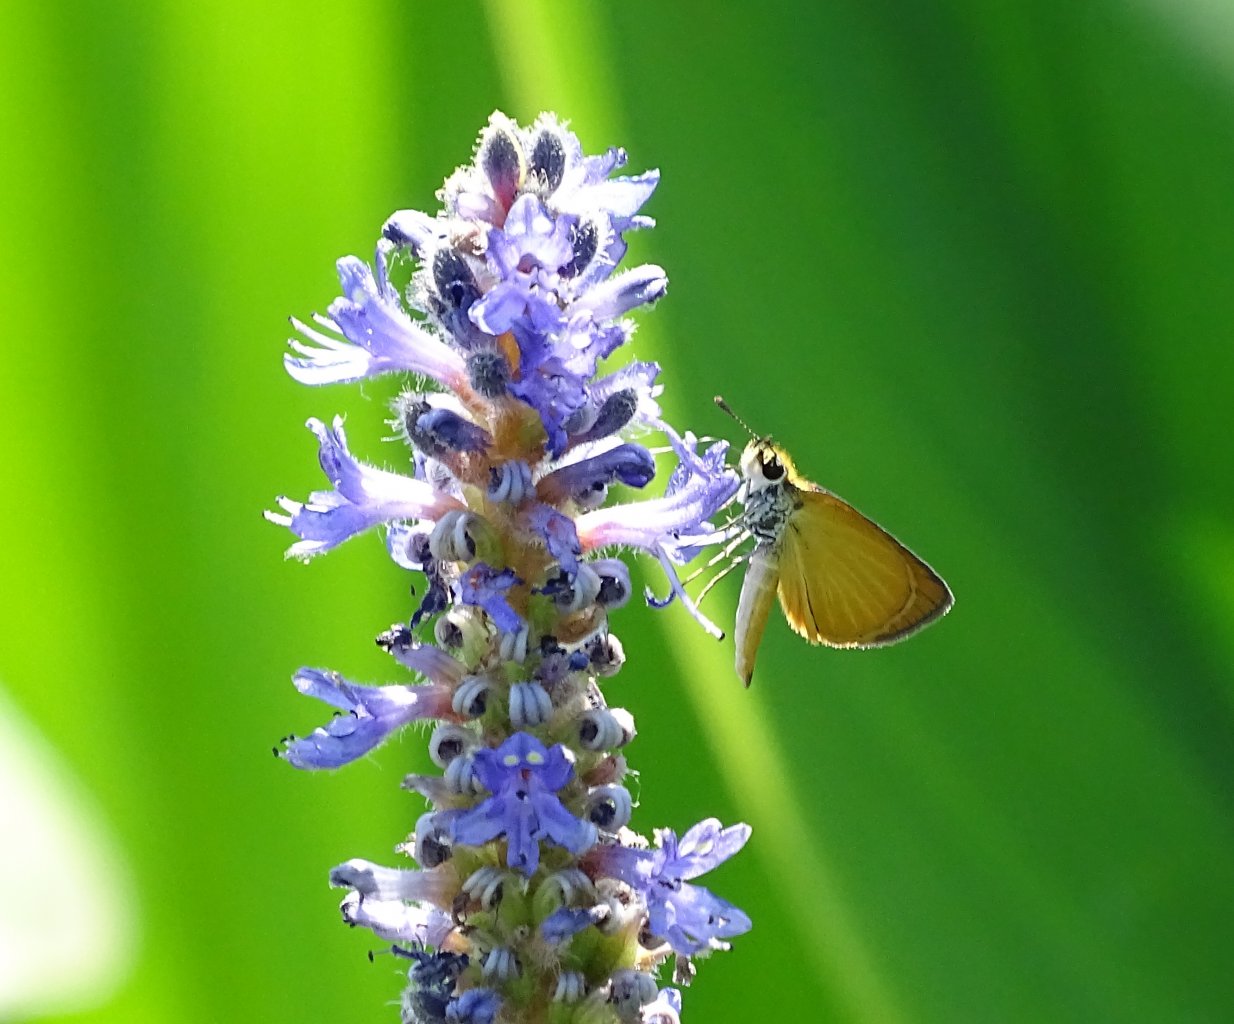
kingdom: Animalia
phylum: Arthropoda
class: Insecta
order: Lepidoptera
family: Hesperiidae
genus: Ancyloxypha
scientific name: Ancyloxypha numitor
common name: Least Skipper
